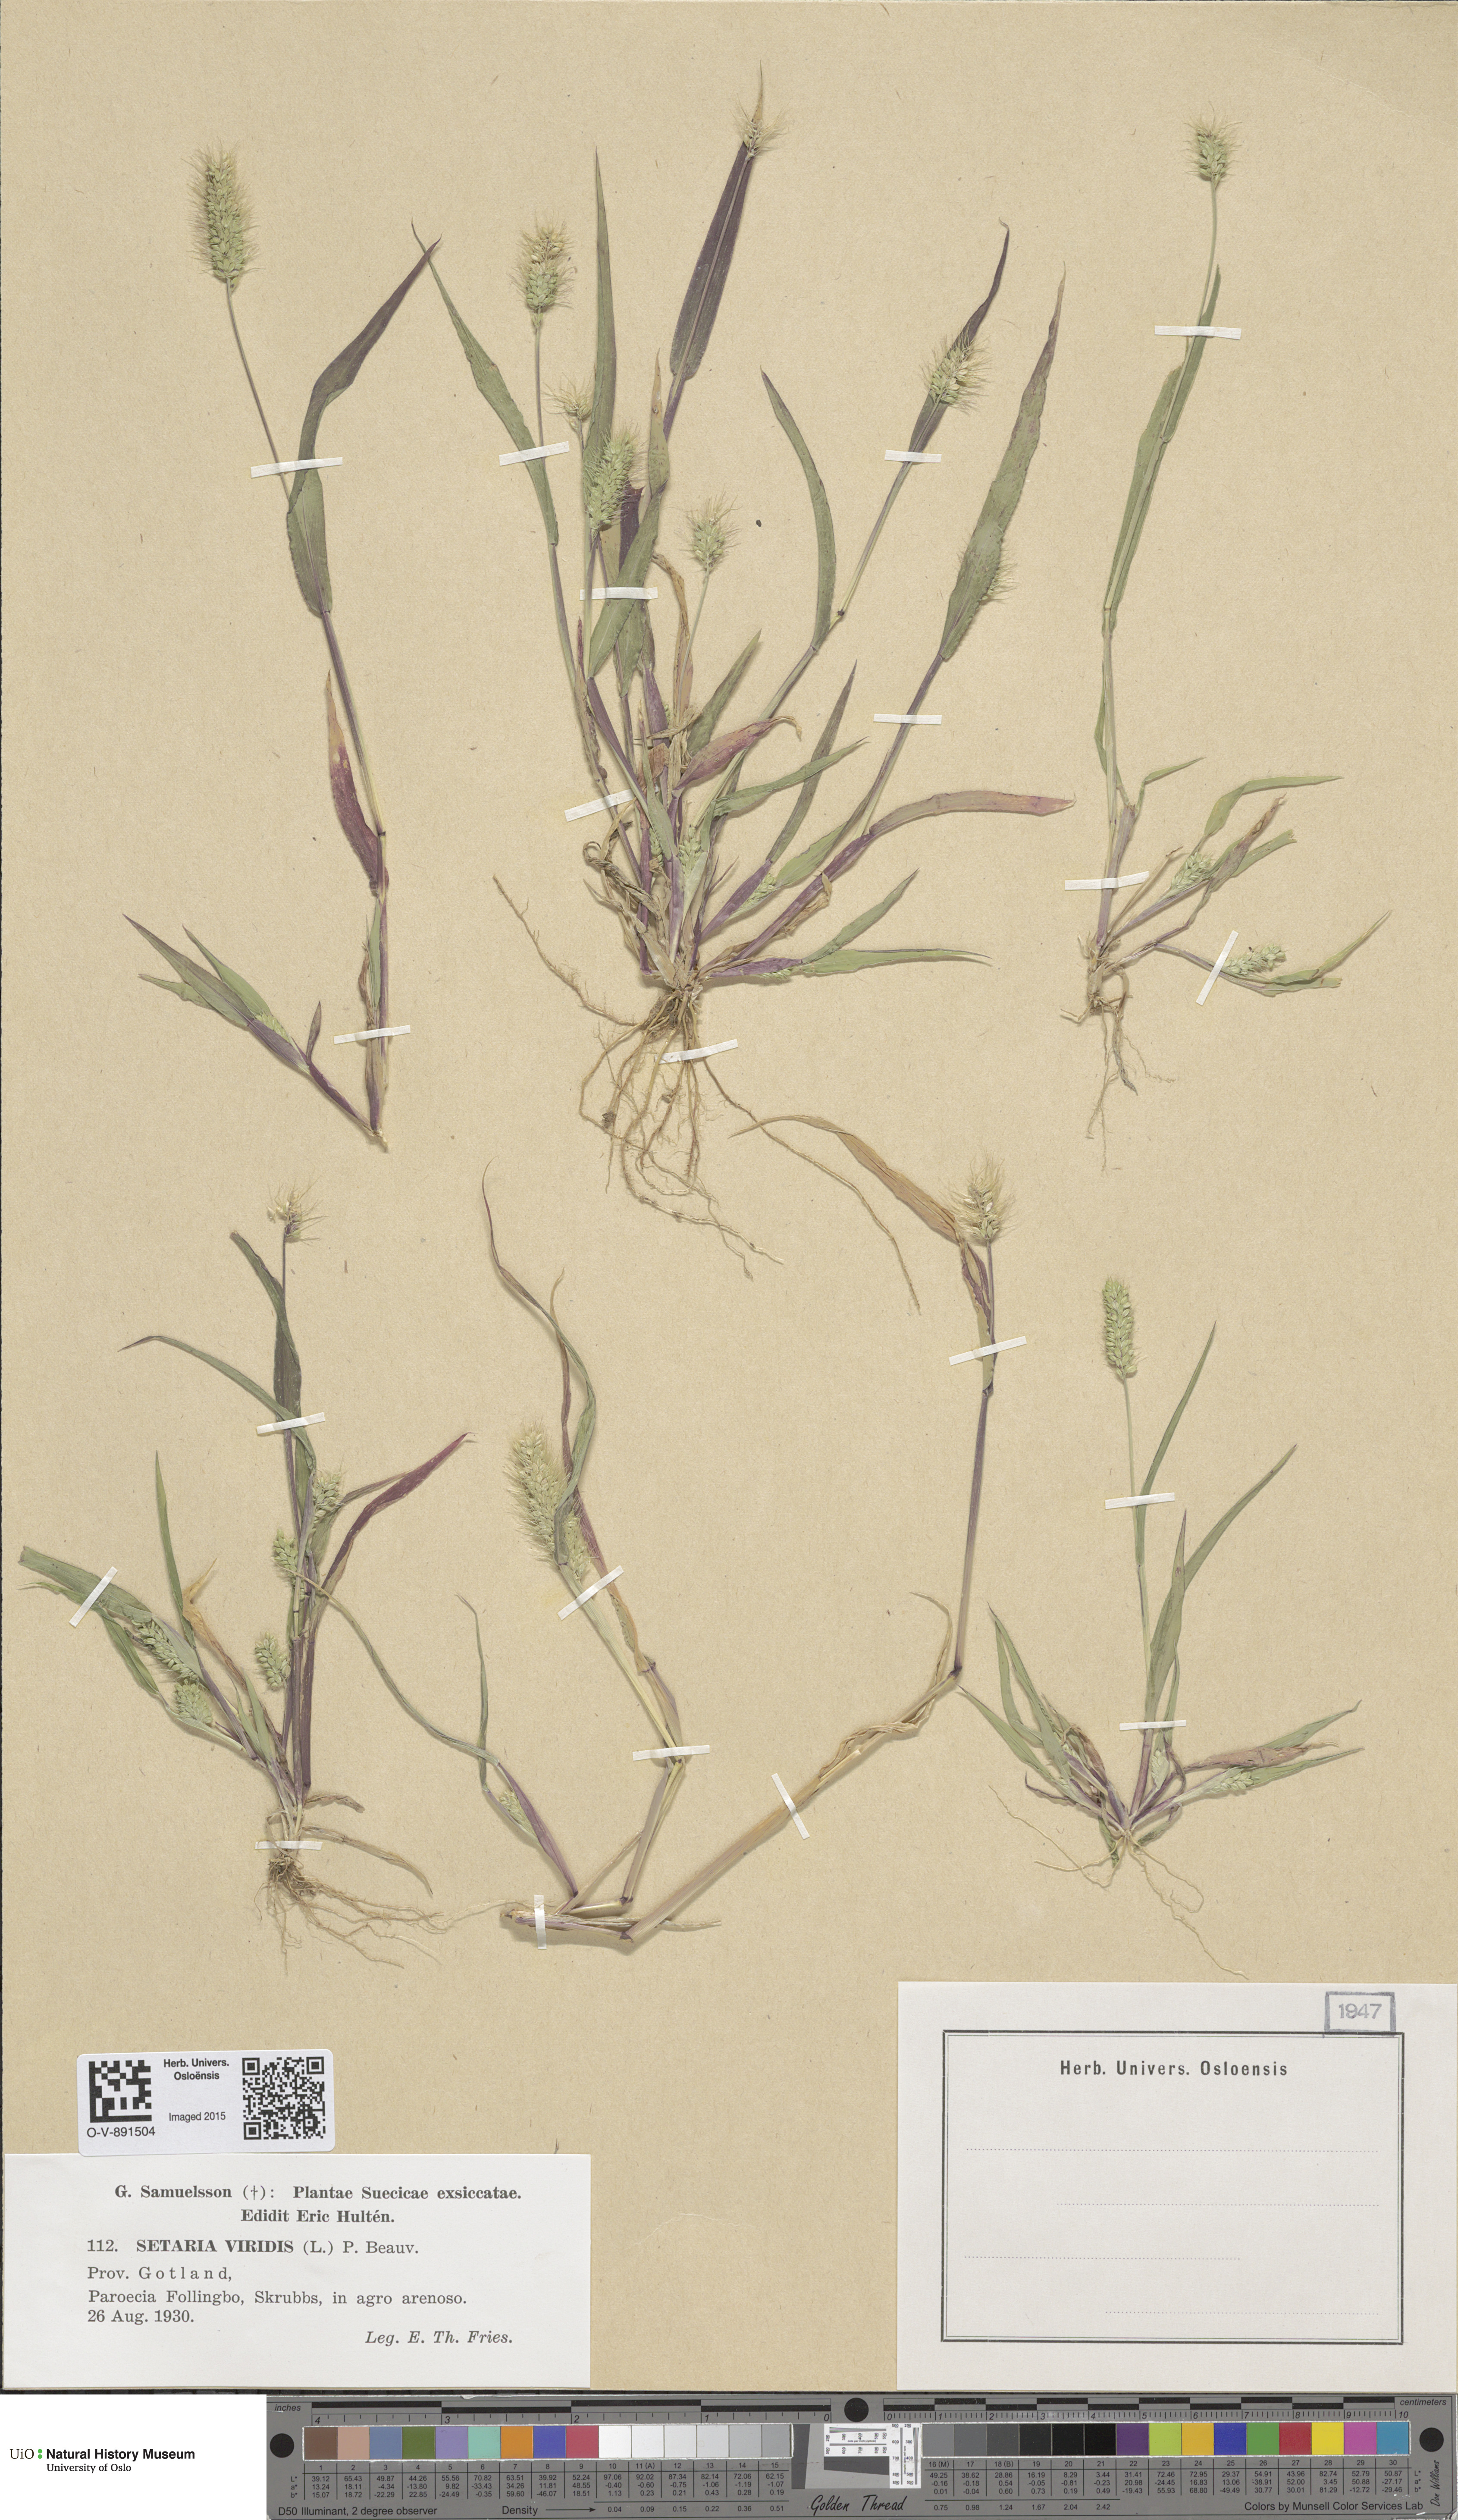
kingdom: Plantae
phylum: Tracheophyta
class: Liliopsida
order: Poales
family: Poaceae
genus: Setaria
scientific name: Setaria viridis
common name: Green bristlegrass
